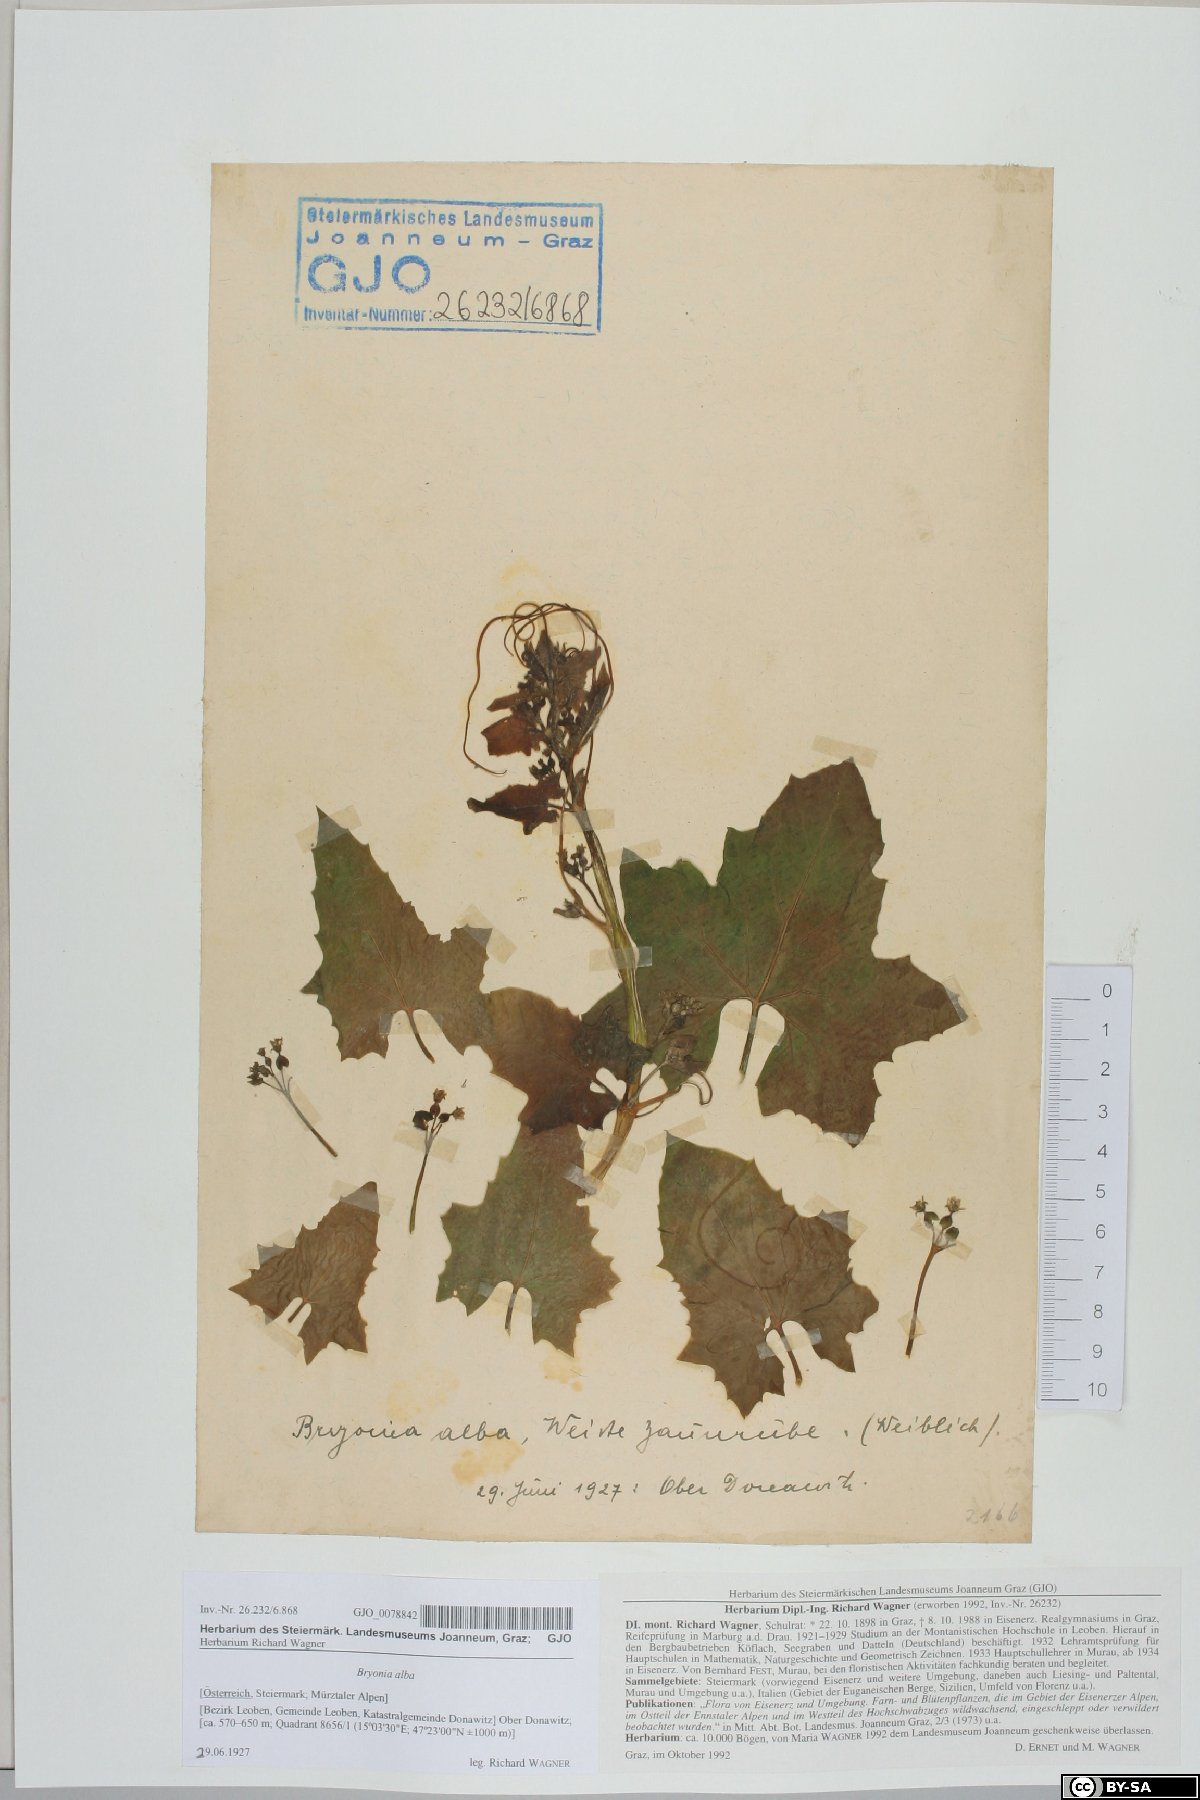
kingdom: Plantae
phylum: Tracheophyta
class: Magnoliopsida
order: Cucurbitales
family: Cucurbitaceae
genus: Bryonia
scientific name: Bryonia alba
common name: White bryony
